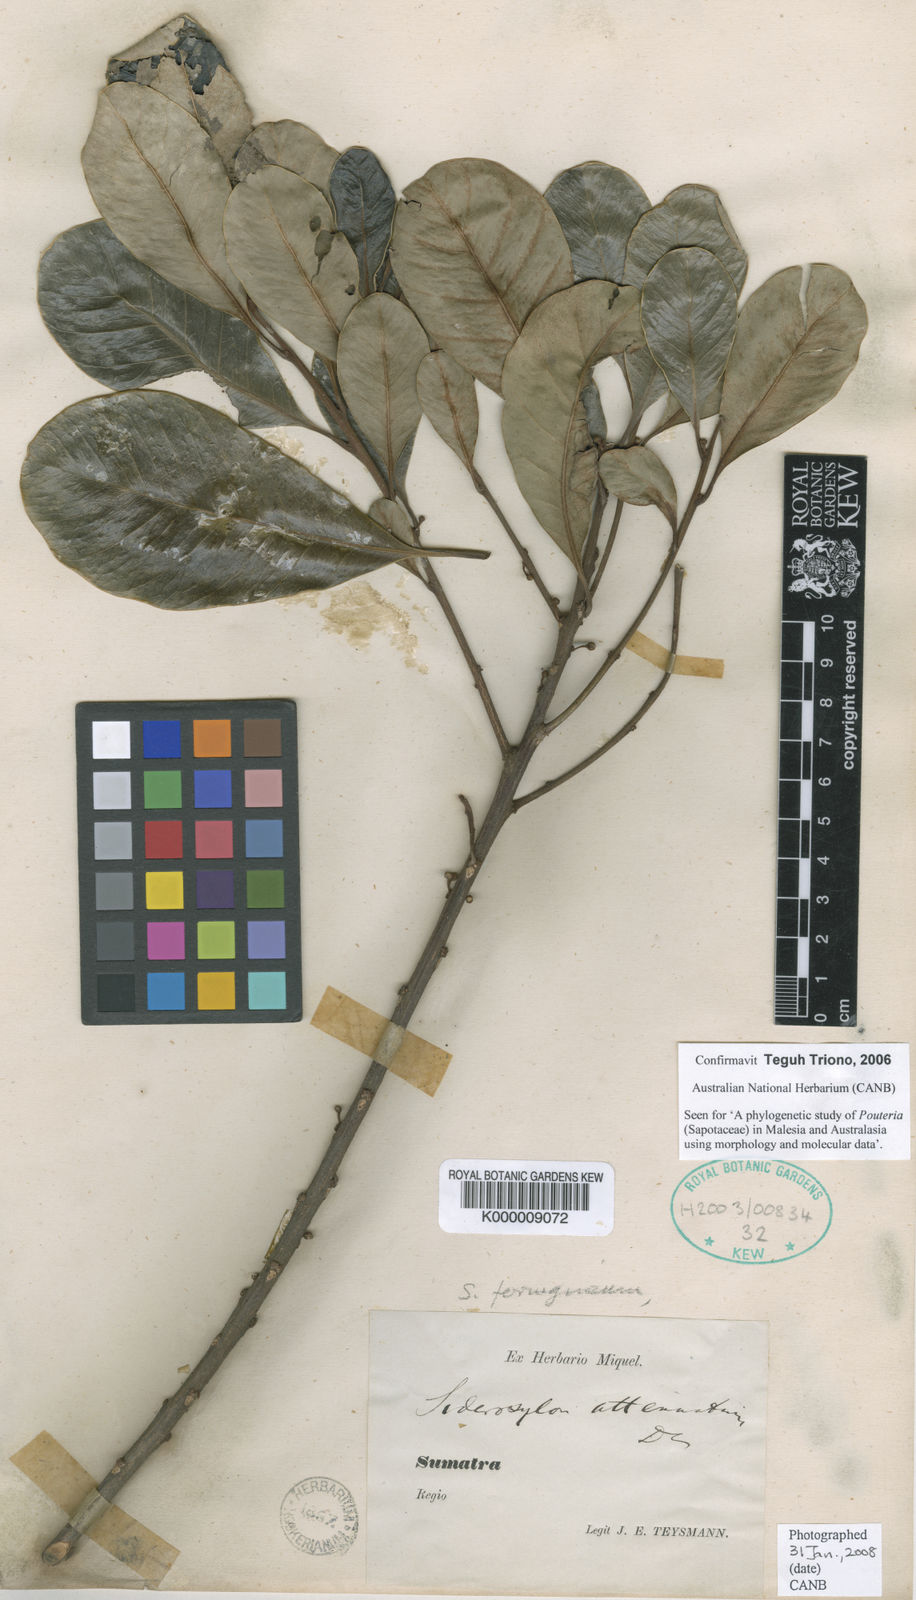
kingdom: Plantae
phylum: Tracheophyta
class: Magnoliopsida
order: Ericales
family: Sapotaceae
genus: Planchonella
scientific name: Planchonella obovata
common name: Black-ash
